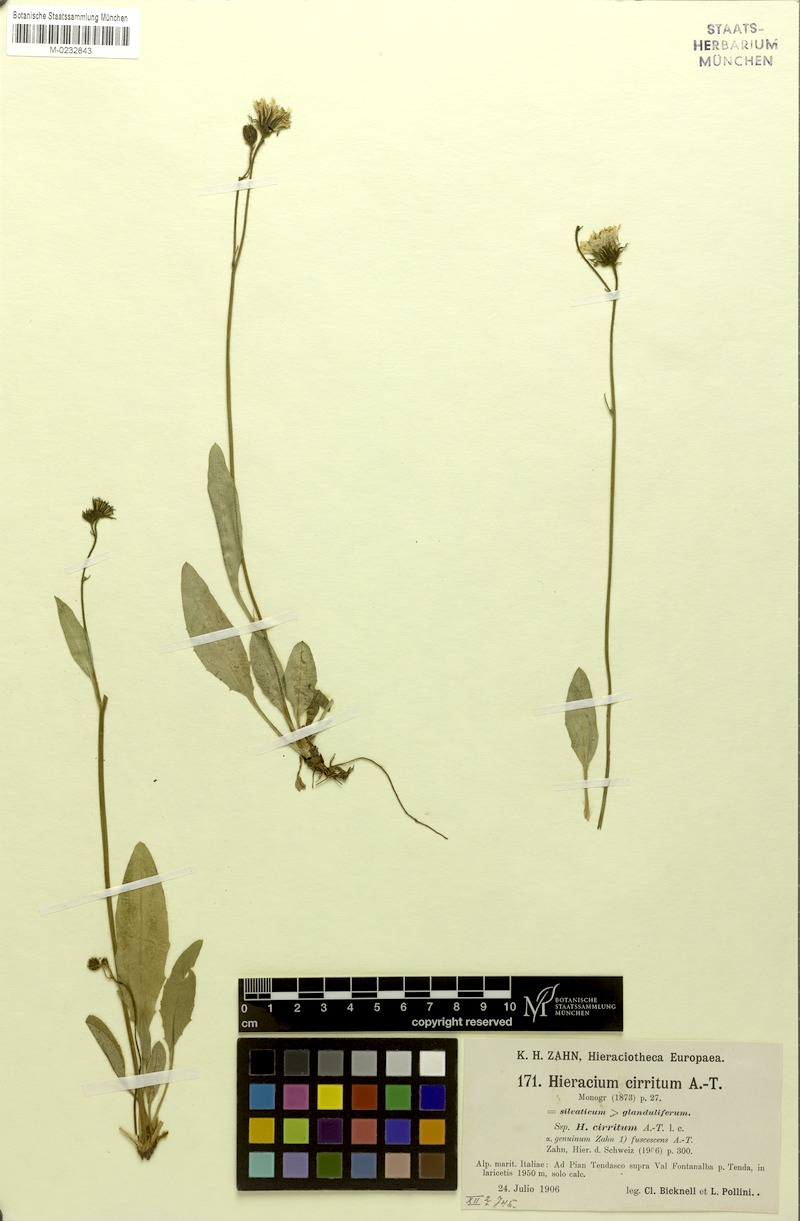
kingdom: Plantae
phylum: Tracheophyta
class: Magnoliopsida
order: Asterales
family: Asteraceae
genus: Hieracium
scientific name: Hieracium cirritum
